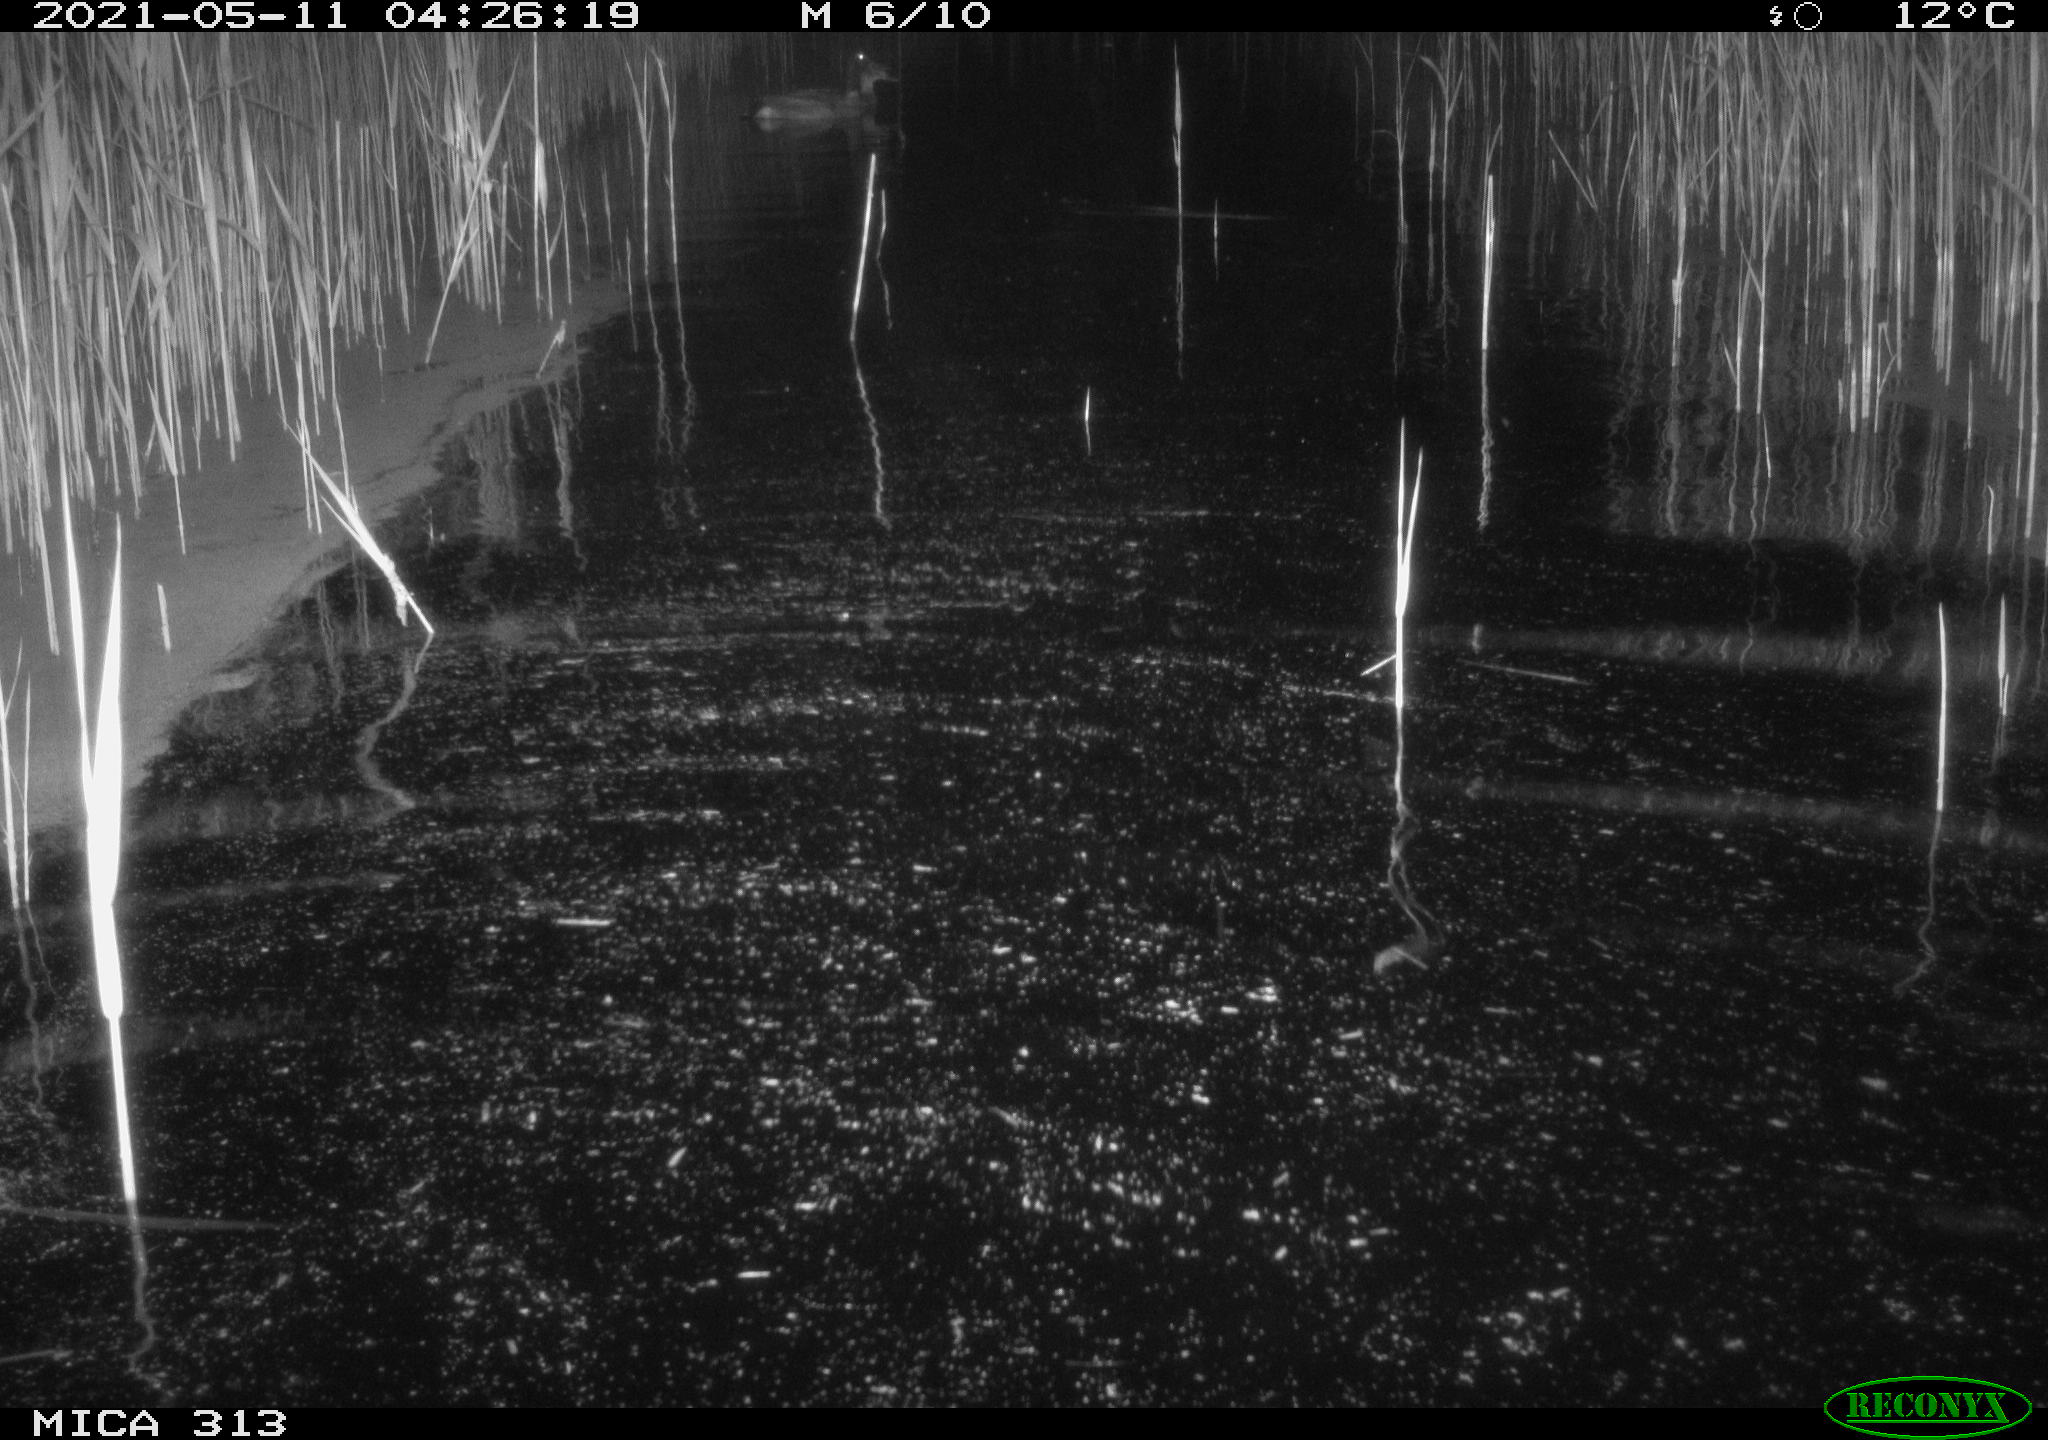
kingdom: Animalia
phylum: Chordata
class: Aves
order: Anseriformes
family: Anatidae
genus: Anas
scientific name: Anas platyrhynchos
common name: Mallard
